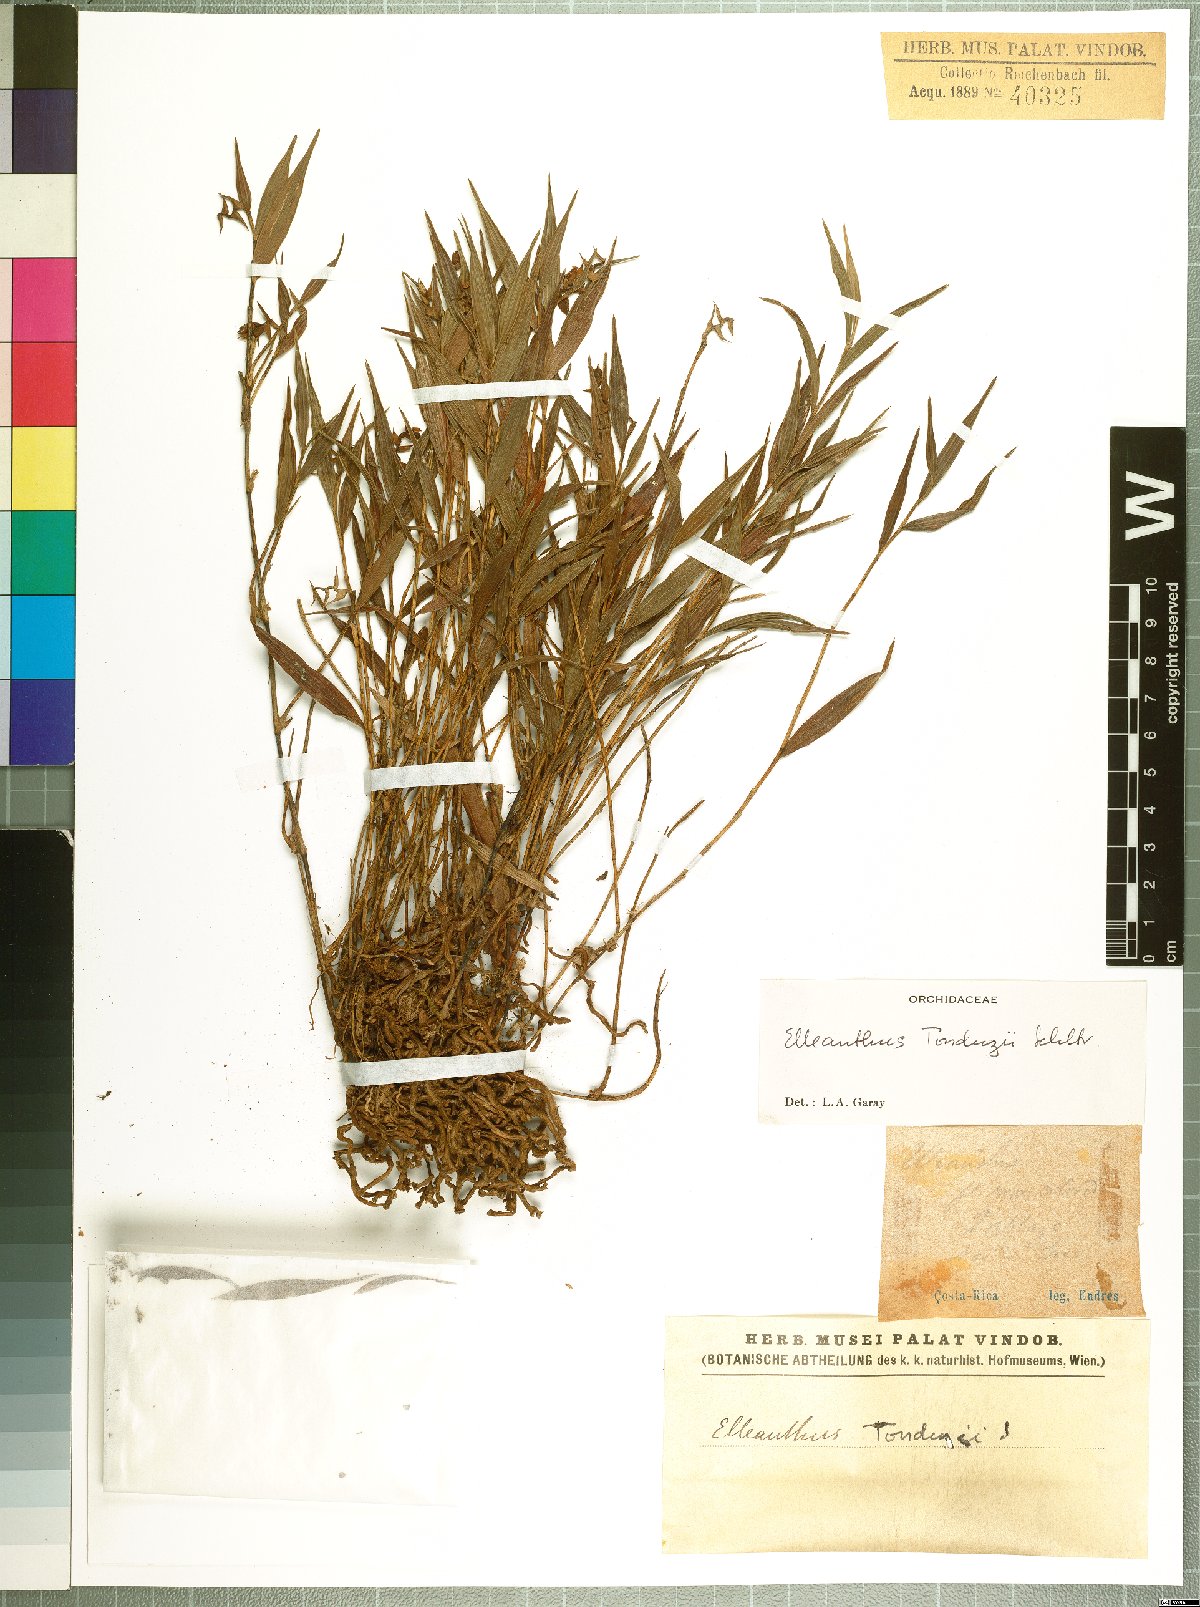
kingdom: Plantae
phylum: Tracheophyta
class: Liliopsida
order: Asparagales
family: Orchidaceae
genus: Elleanthus
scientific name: Elleanthus tonduzii
